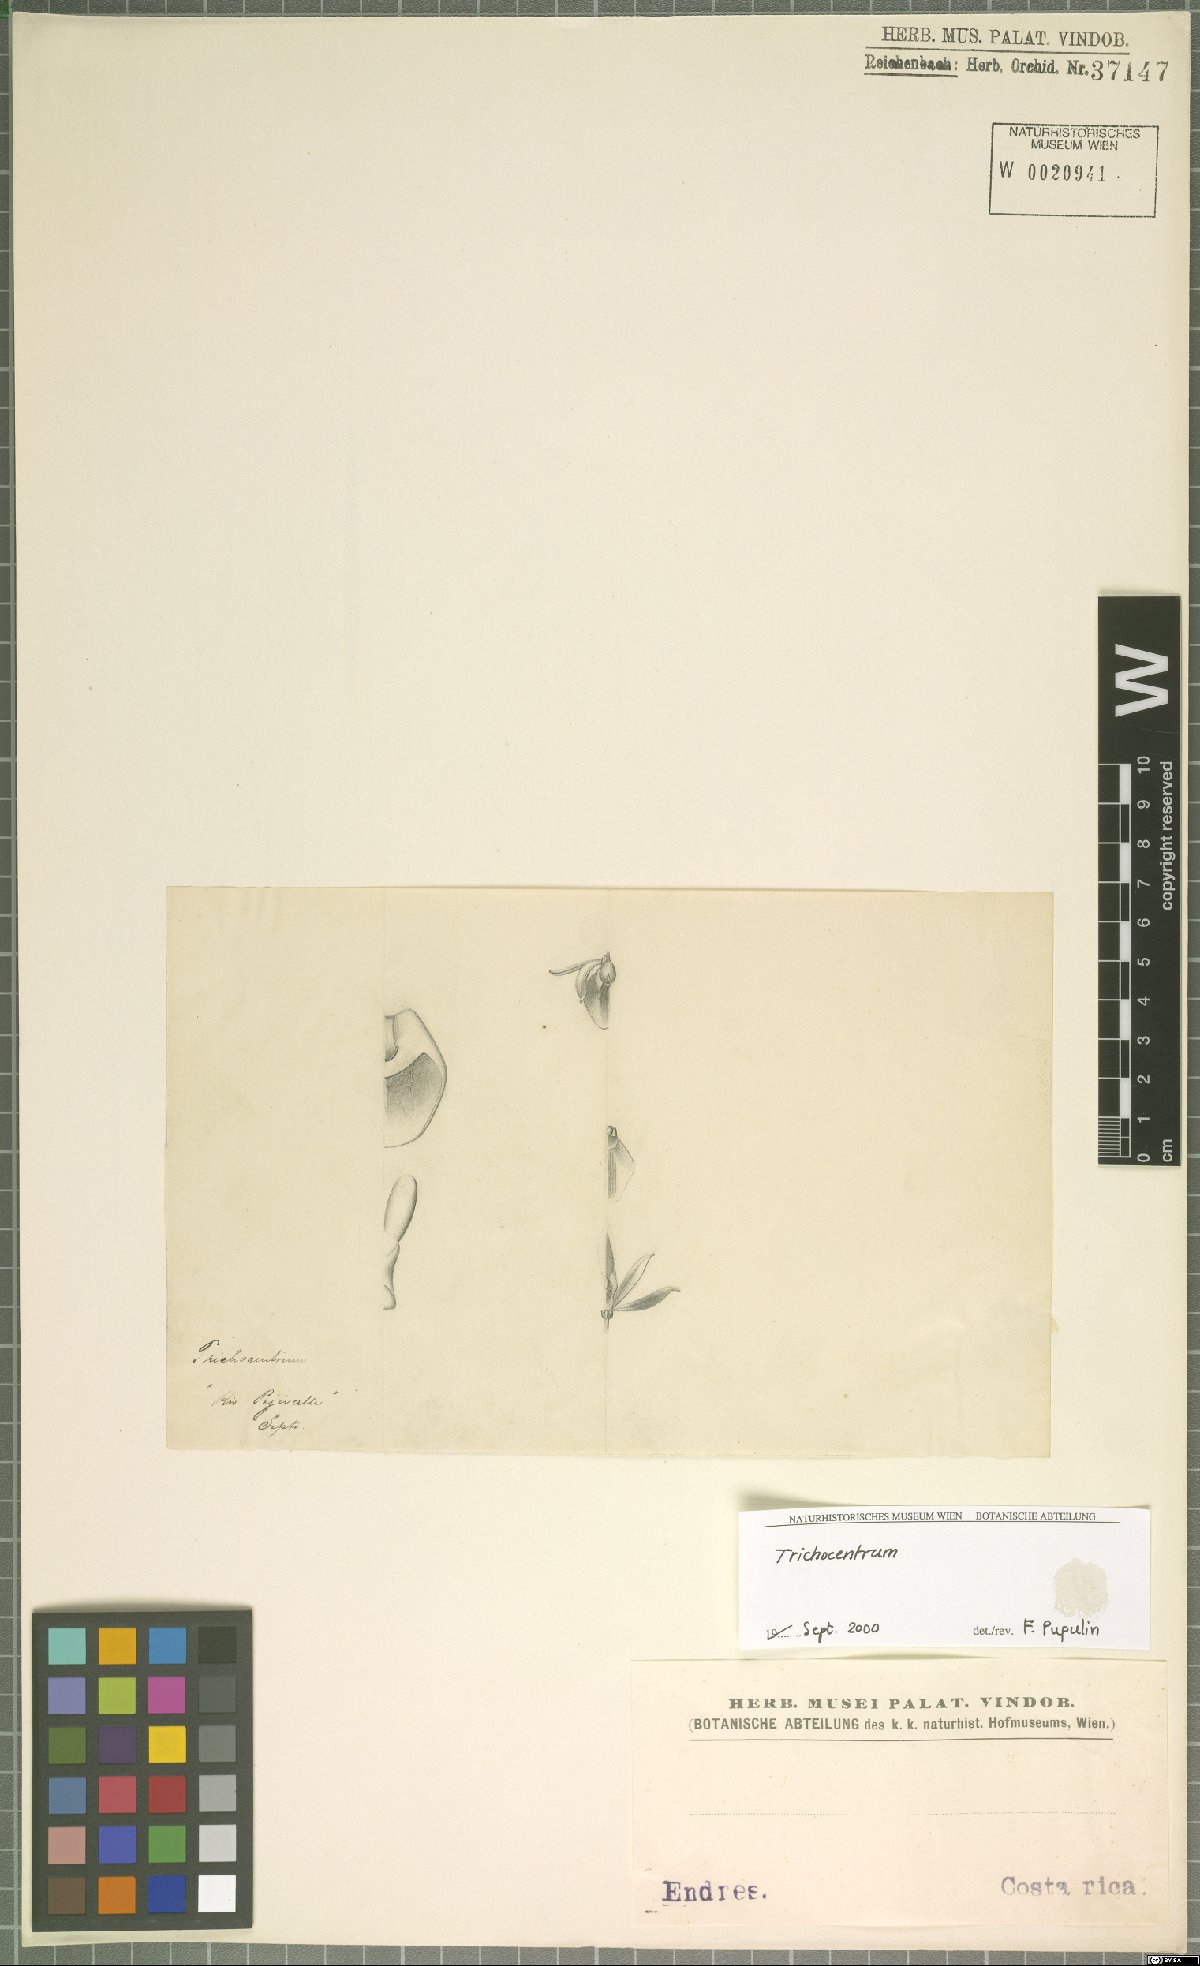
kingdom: Plantae
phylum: Tracheophyta
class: Liliopsida
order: Asparagales
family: Orchidaceae
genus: Trichocentrum
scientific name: Trichocentrum cymbiglossum
